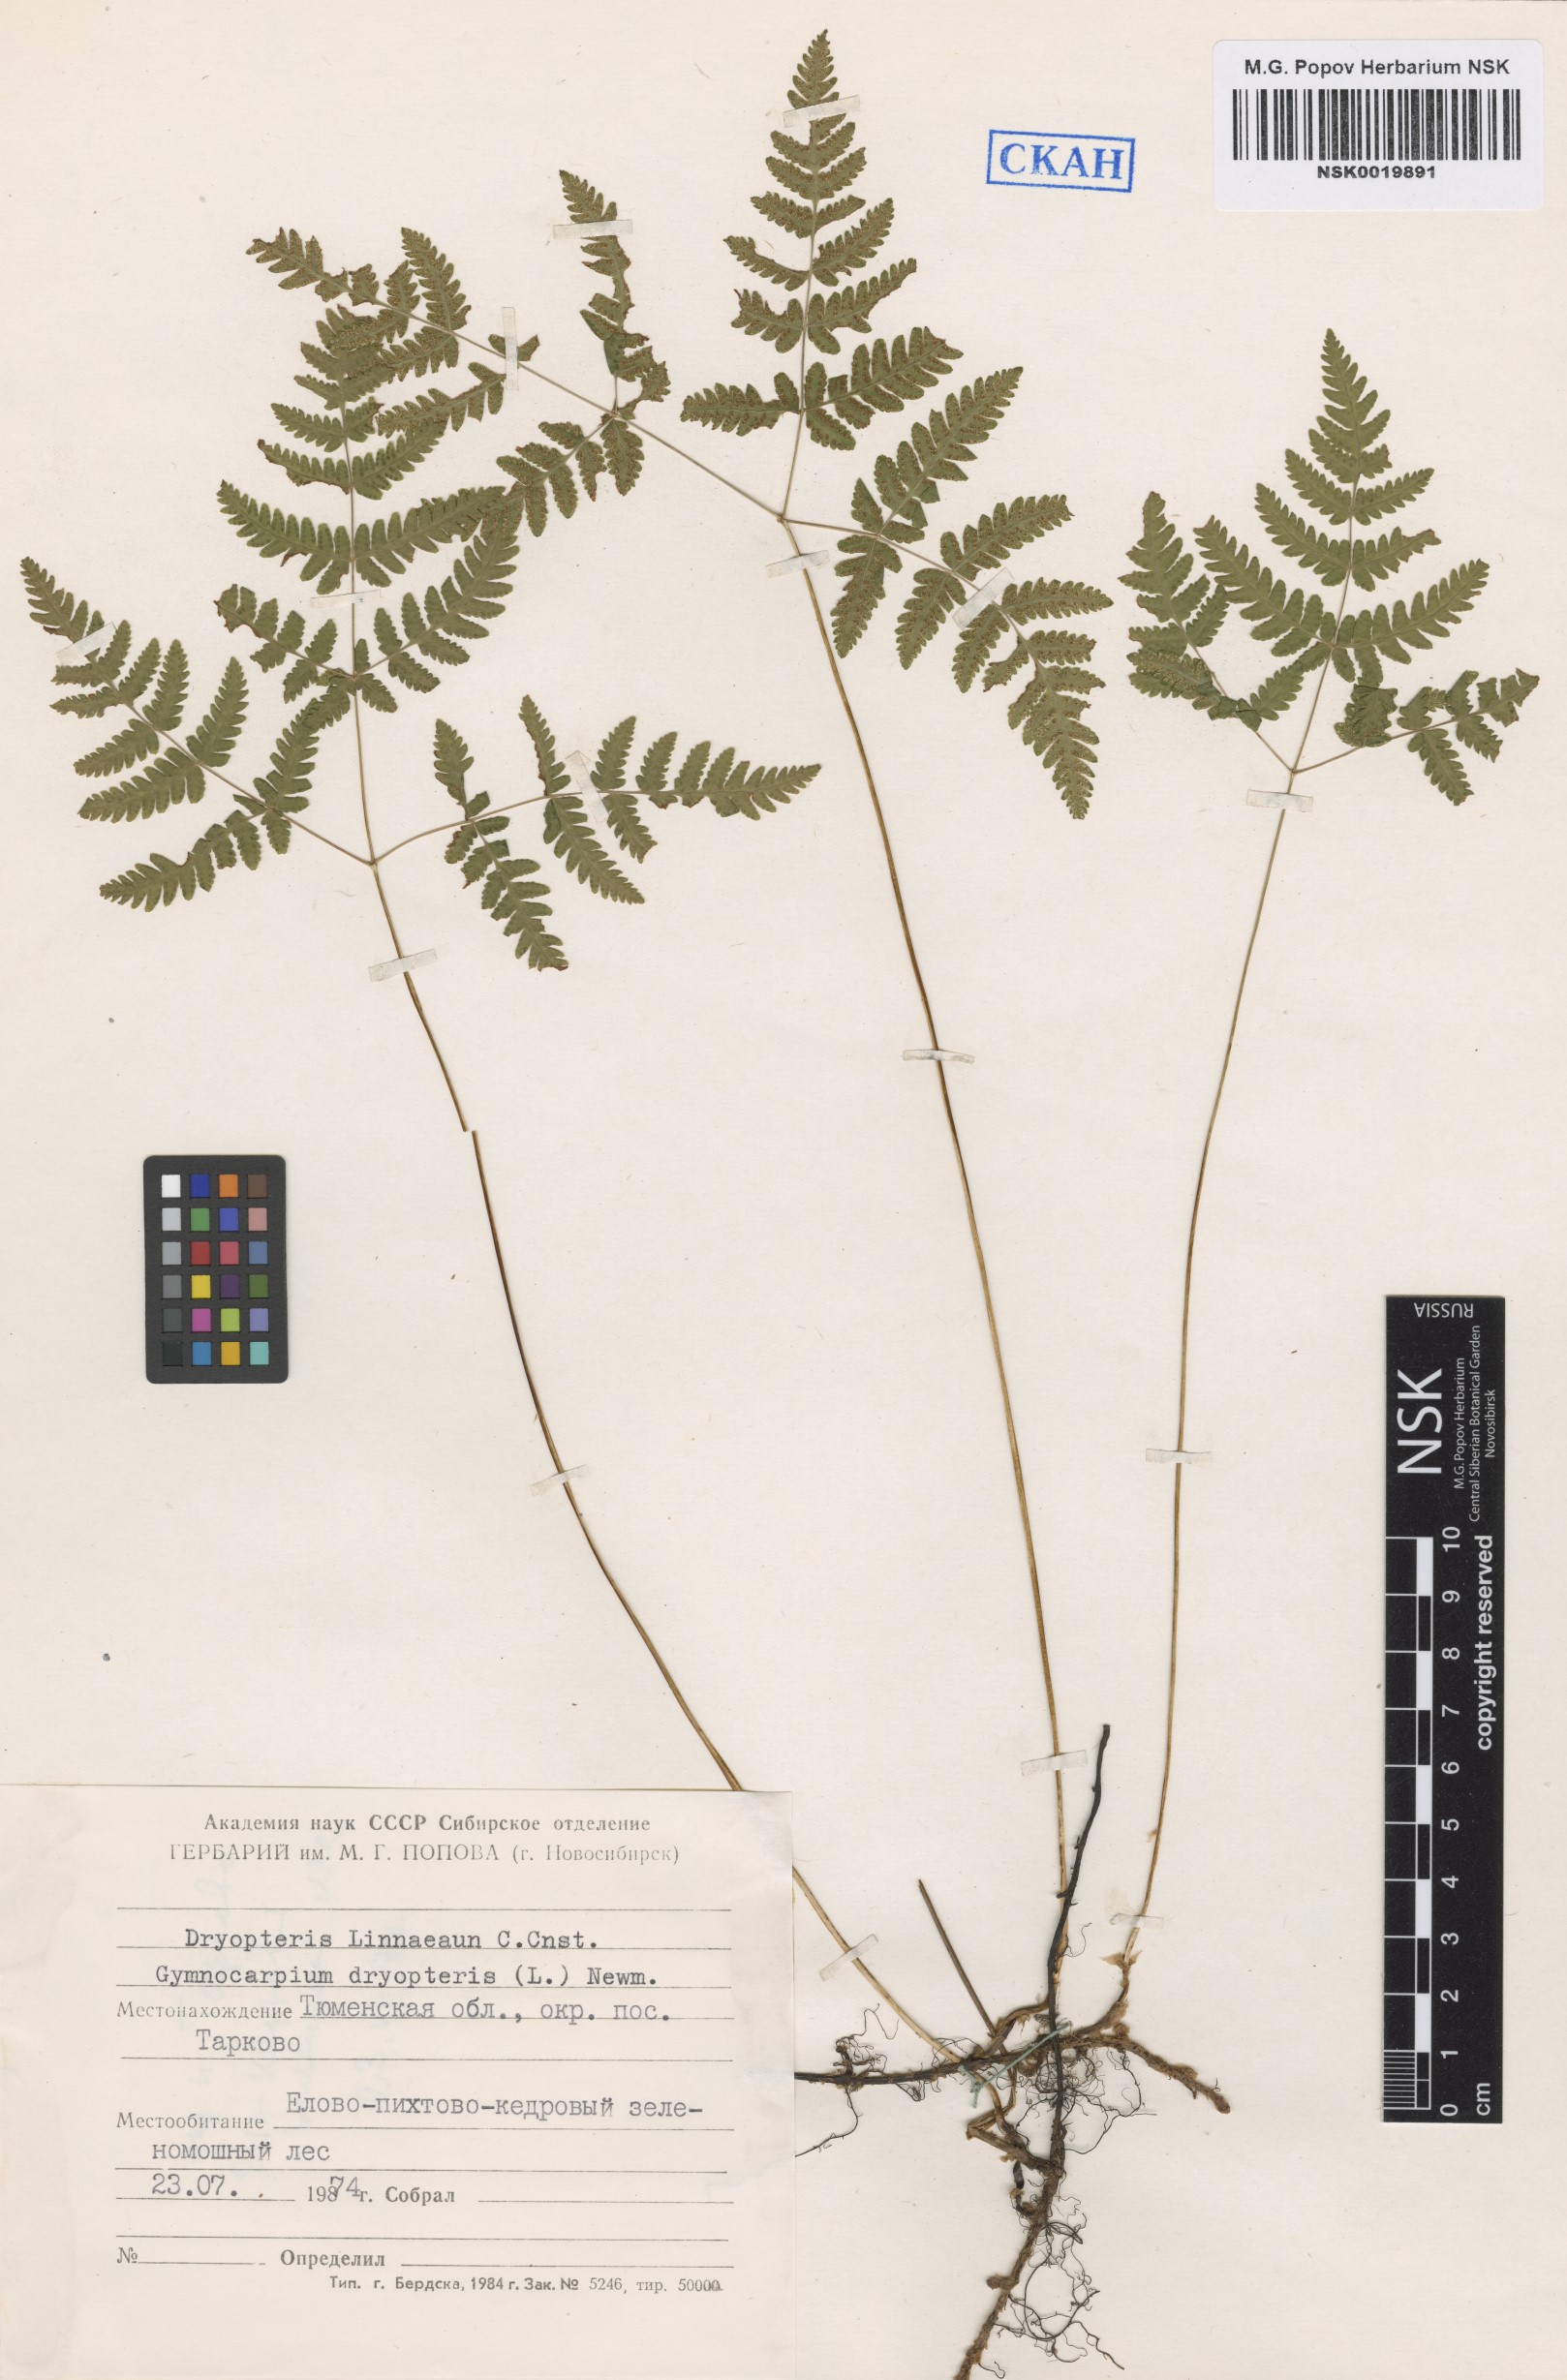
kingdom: Plantae
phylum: Tracheophyta
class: Polypodiopsida
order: Polypodiales
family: Cystopteridaceae
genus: Gymnocarpium
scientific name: Gymnocarpium dryopteris
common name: Oak fern
